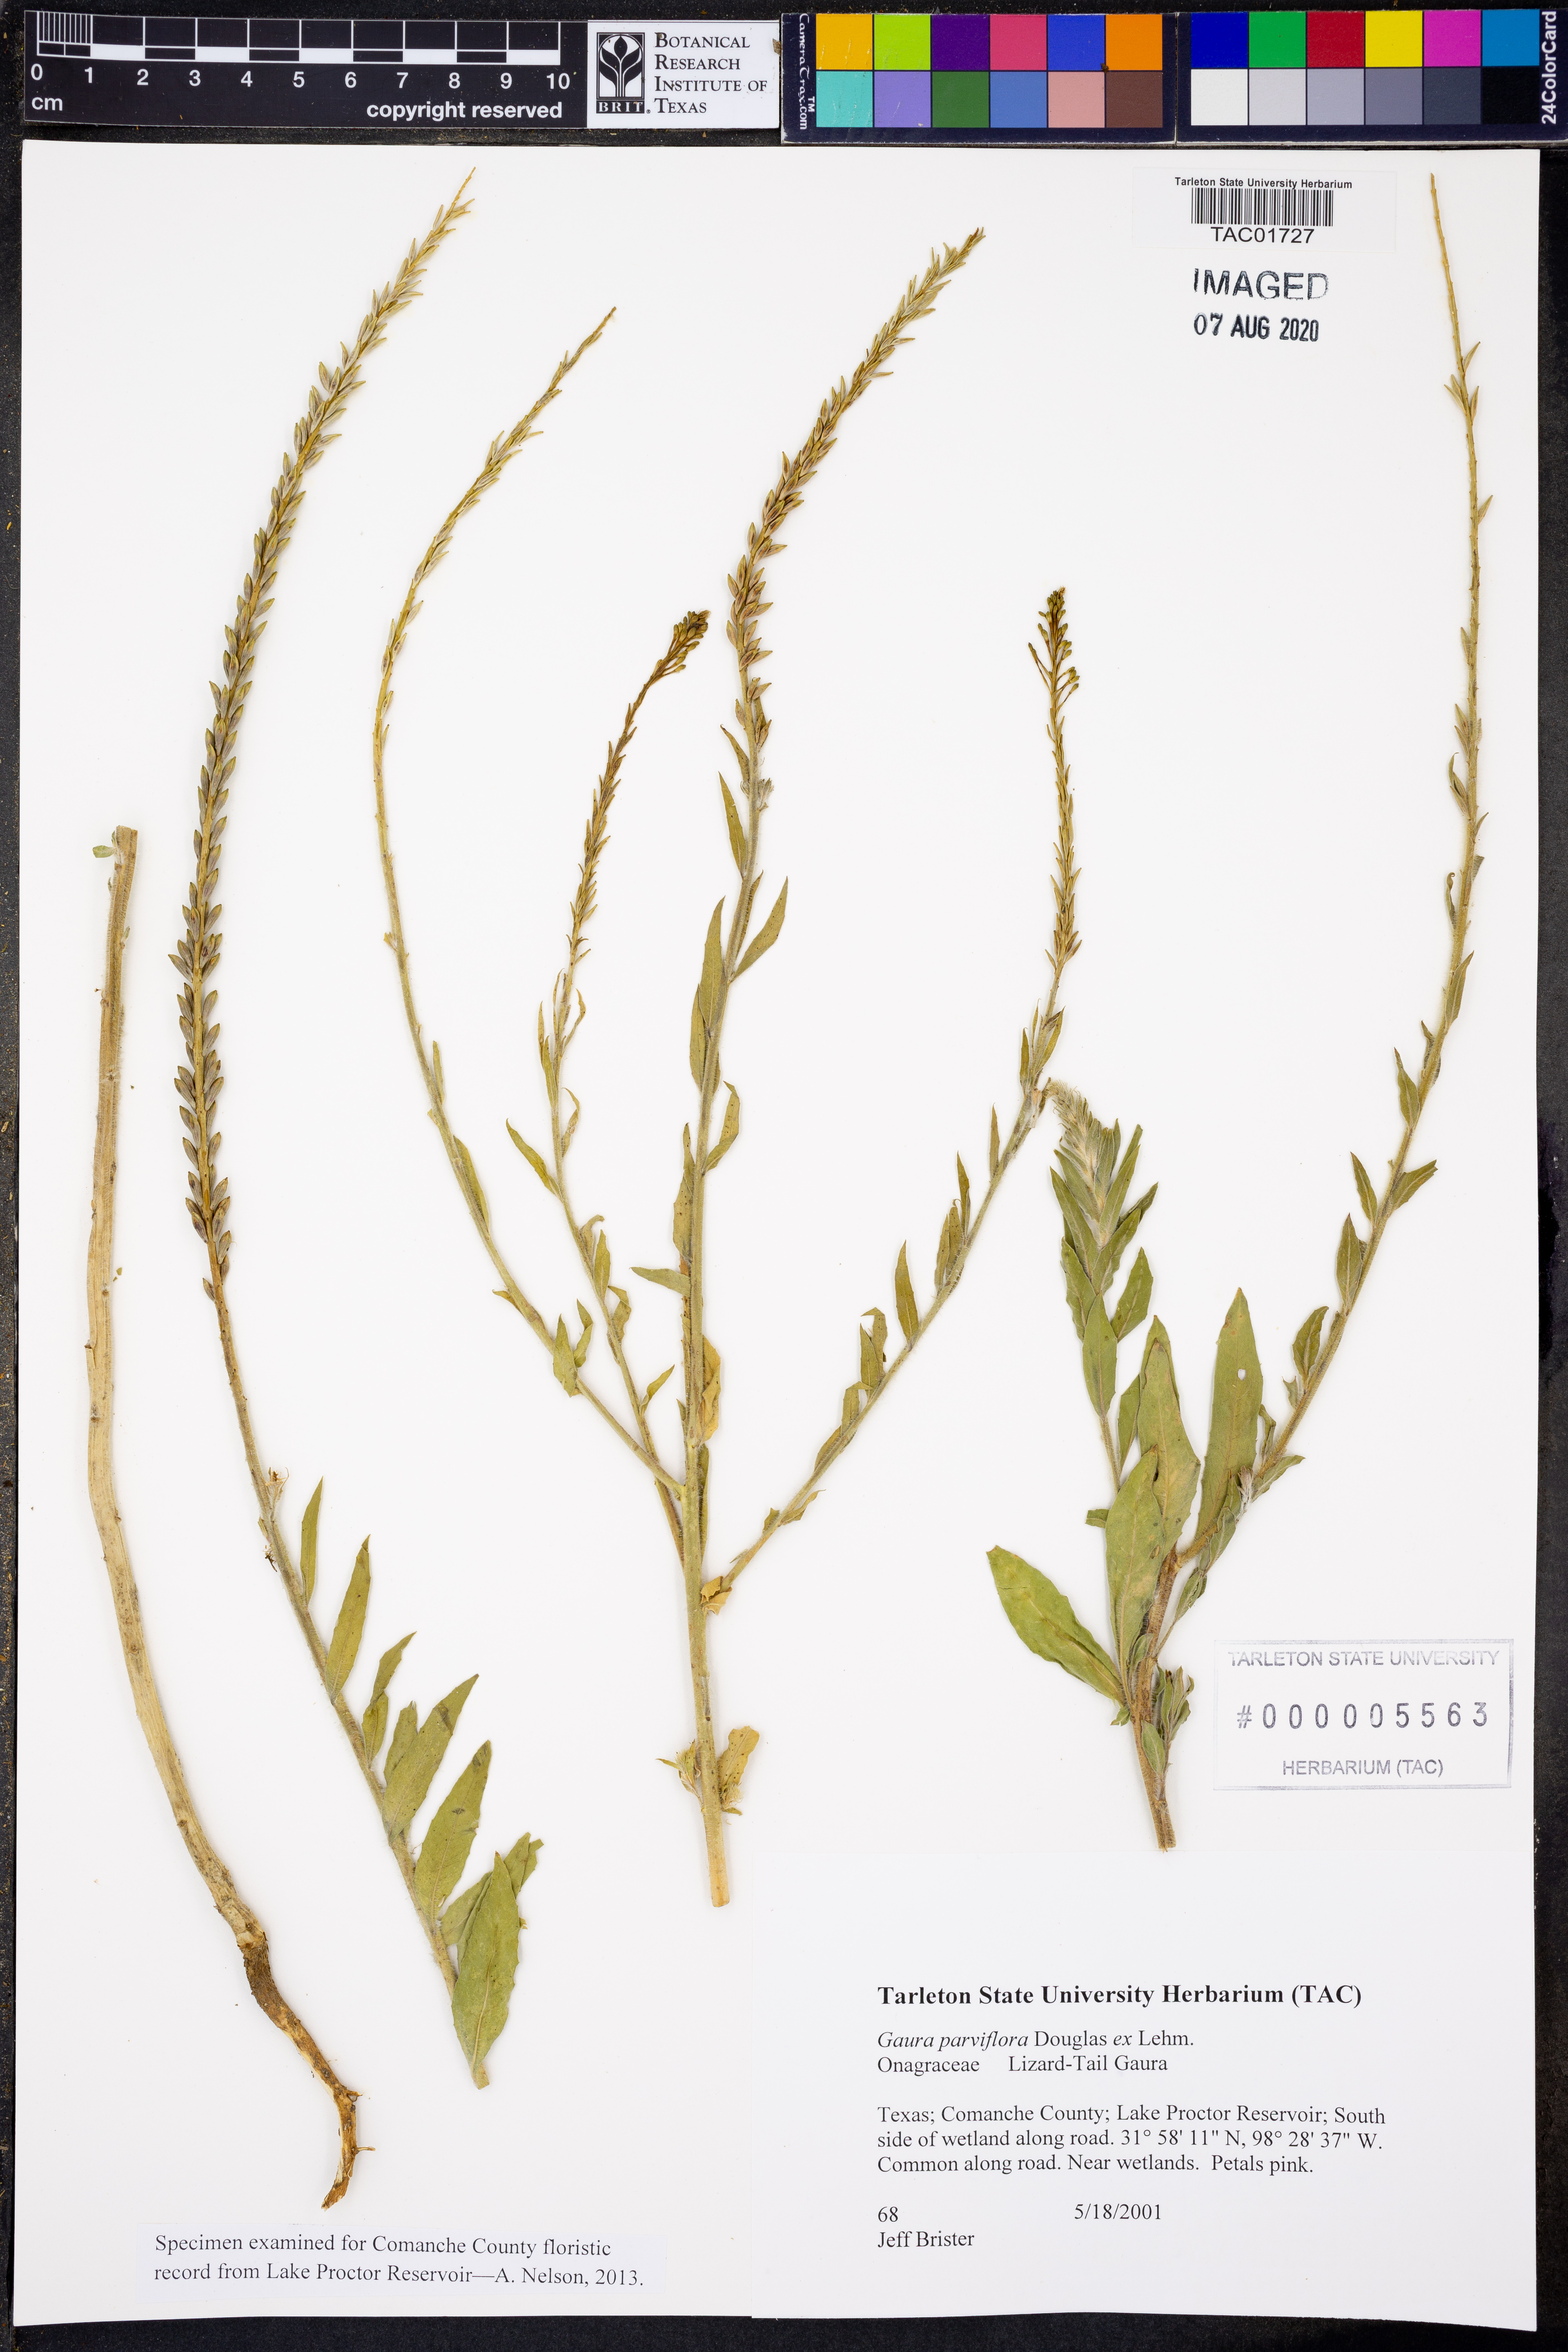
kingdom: Plantae
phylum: Tracheophyta
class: Magnoliopsida
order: Myrtales
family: Onagraceae
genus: Oenothera
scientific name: Oenothera curtiflora
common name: Velvetweed
